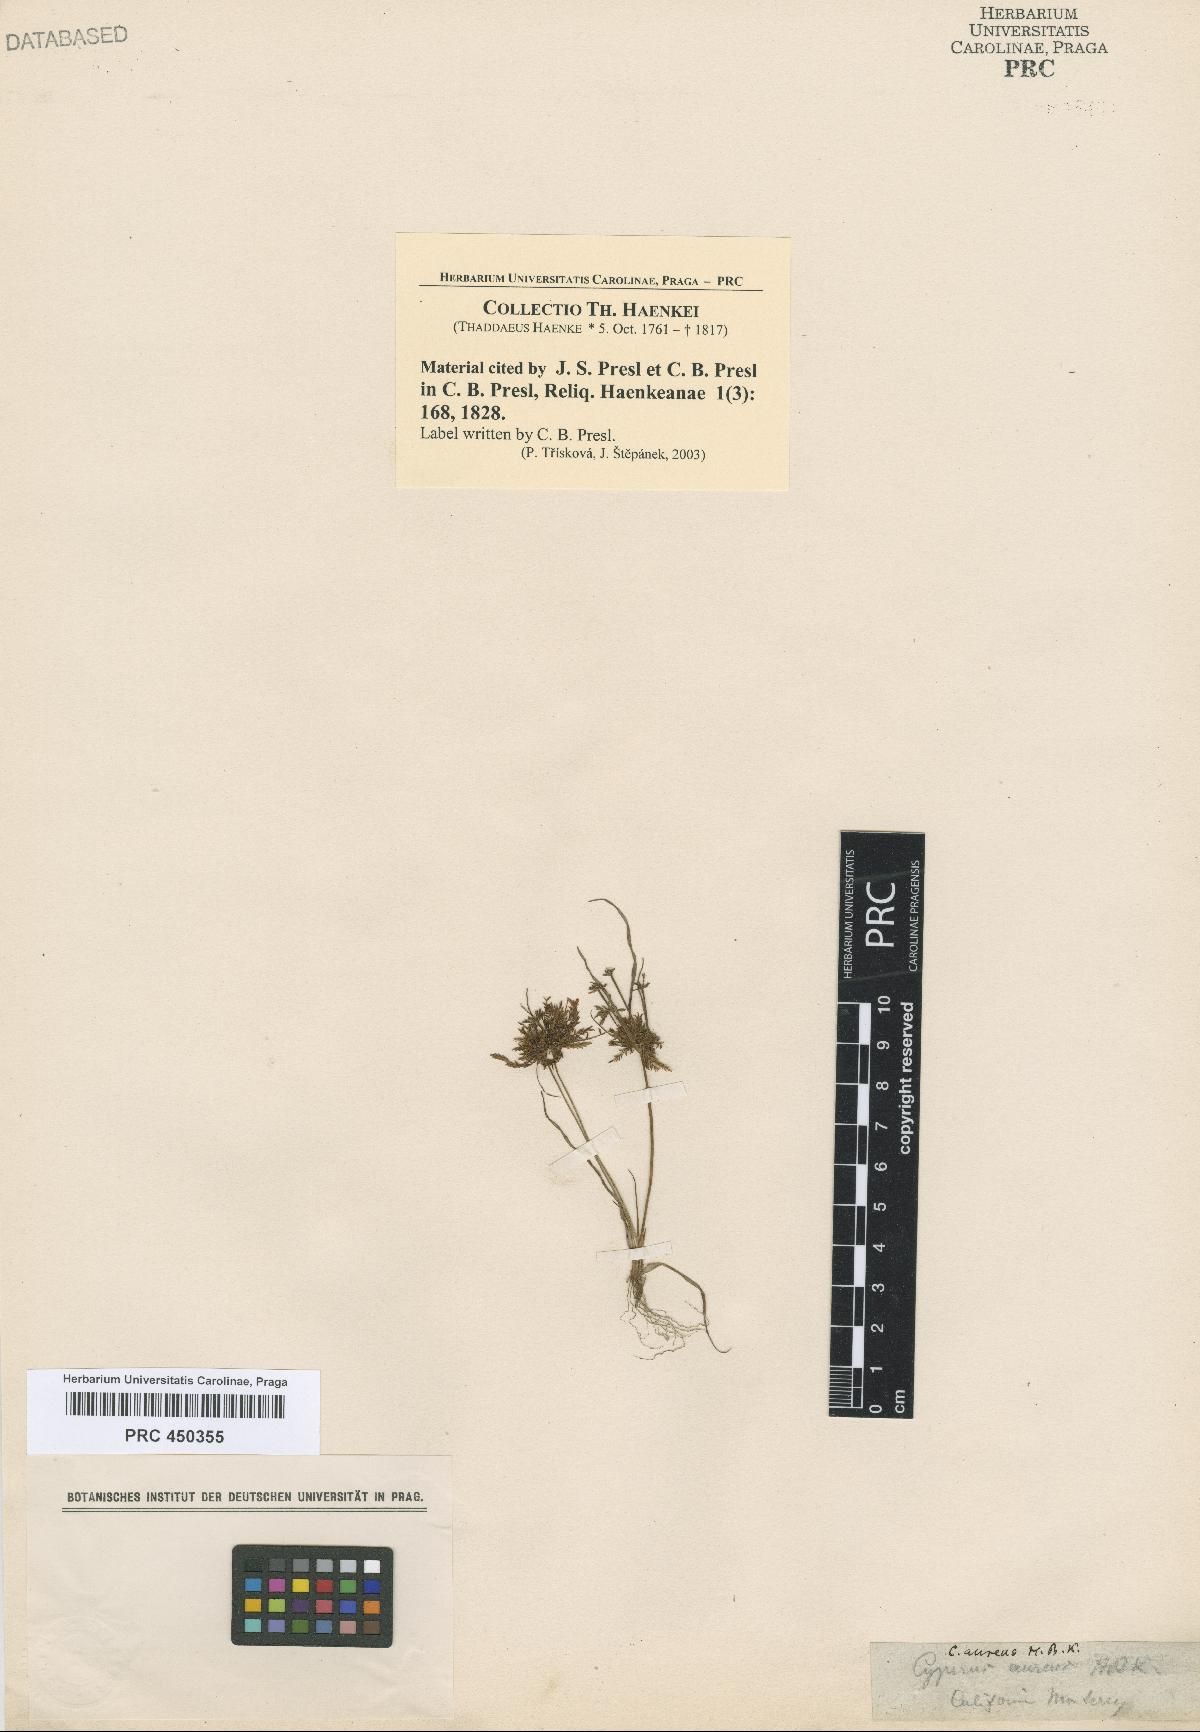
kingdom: Plantae
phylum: Tracheophyta
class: Liliopsida
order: Poales
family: Cyperaceae
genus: Cyperus
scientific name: Cyperus amabilis
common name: Foothill flat sedge
